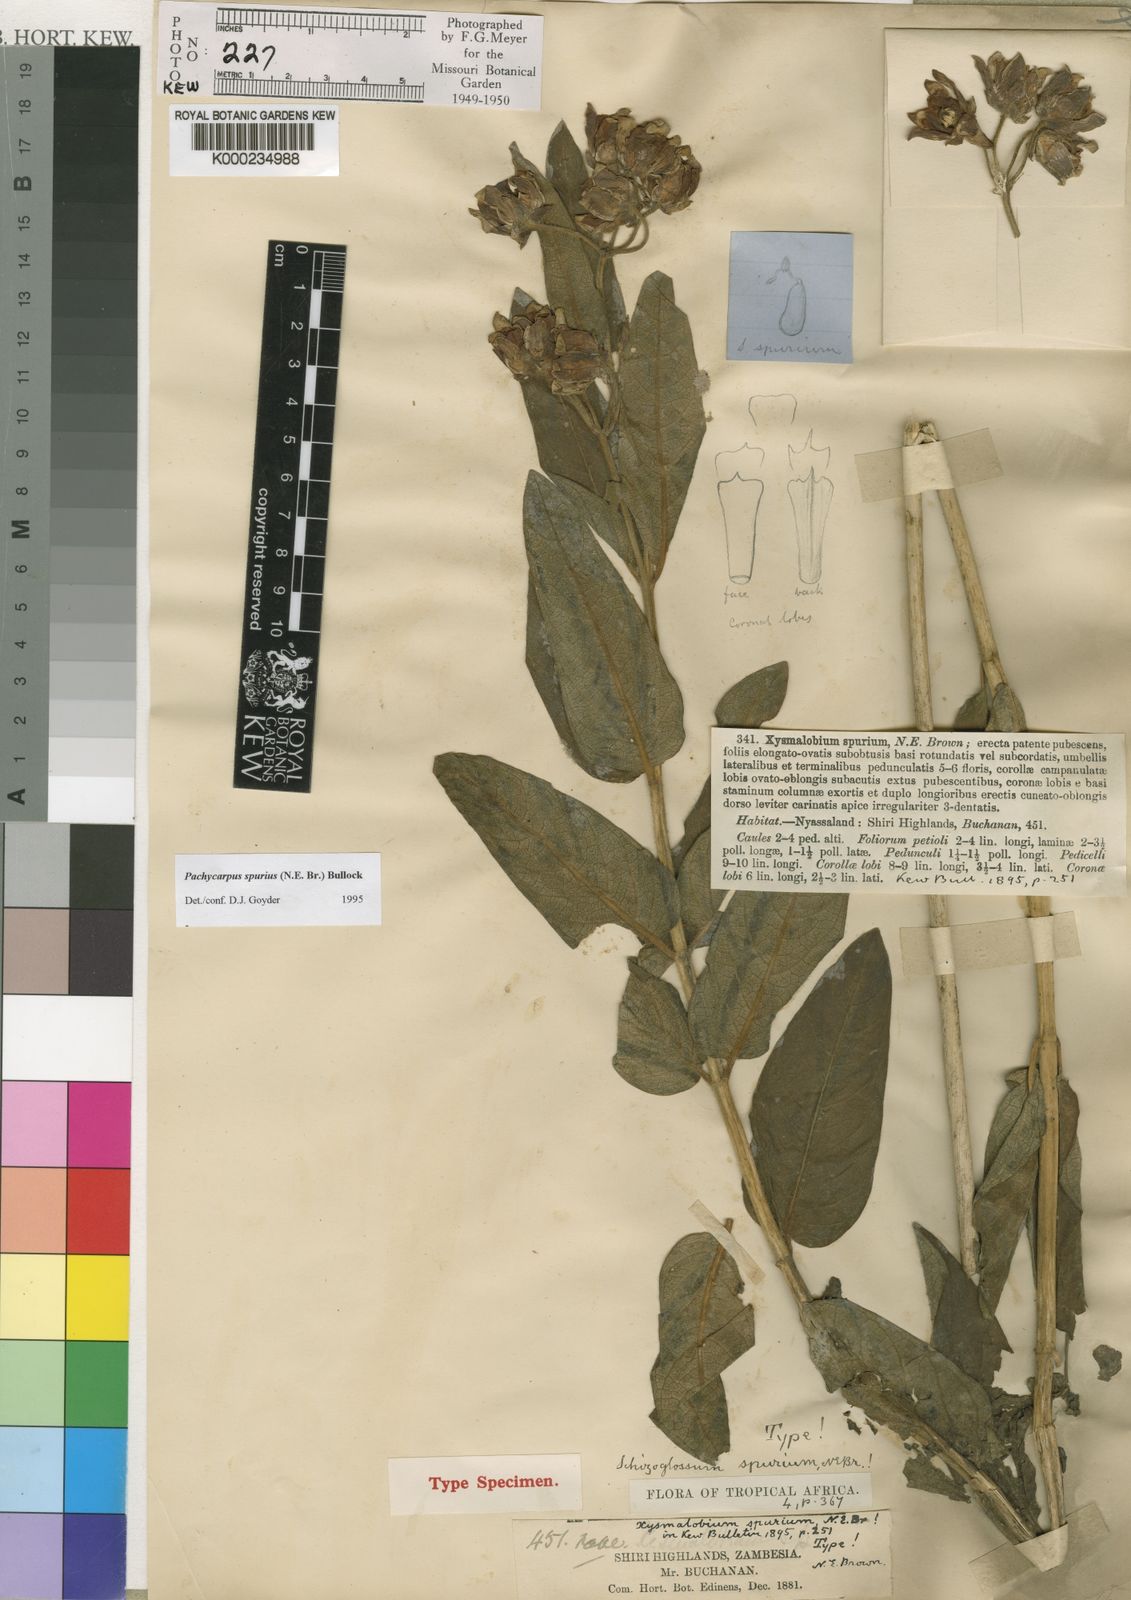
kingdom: Plantae
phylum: Tracheophyta
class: Magnoliopsida
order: Gentianales
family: Apocynaceae
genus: Pachycarpus
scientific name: Pachycarpus spurius
